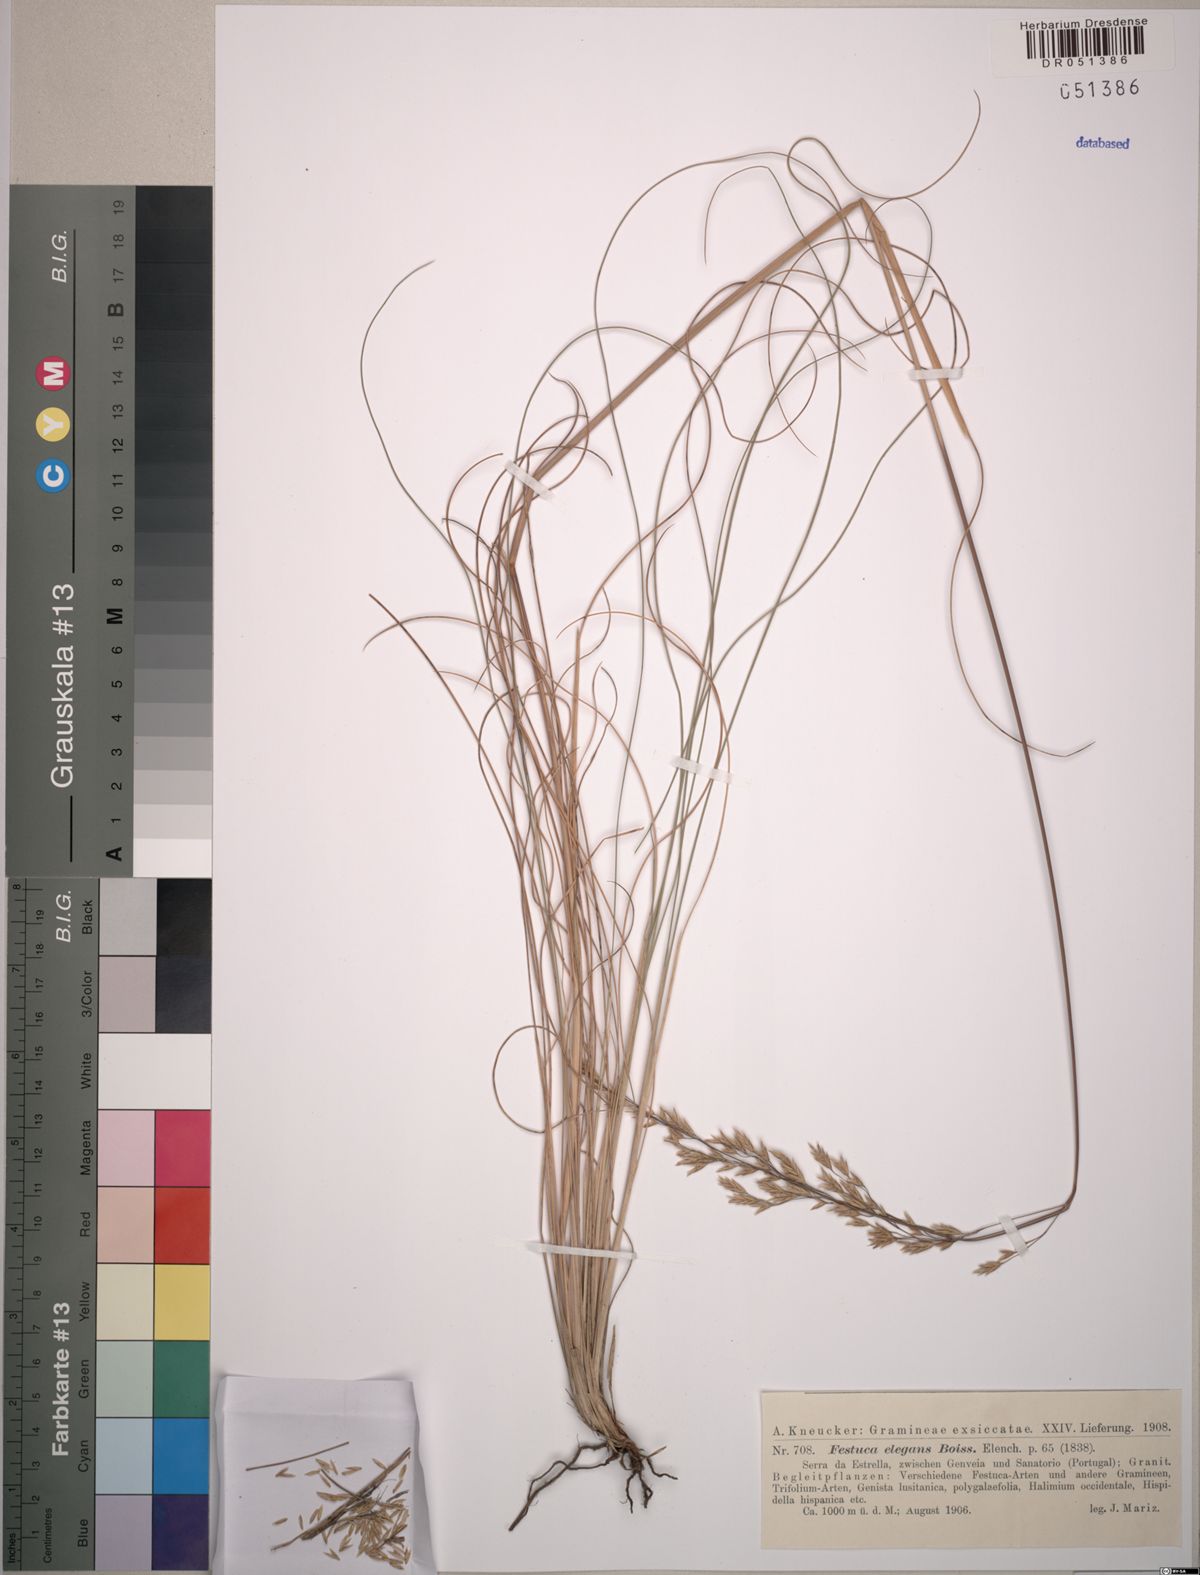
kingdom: Plantae
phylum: Tracheophyta
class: Liliopsida
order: Poales
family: Poaceae
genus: Festuca
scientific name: Festuca elegans
